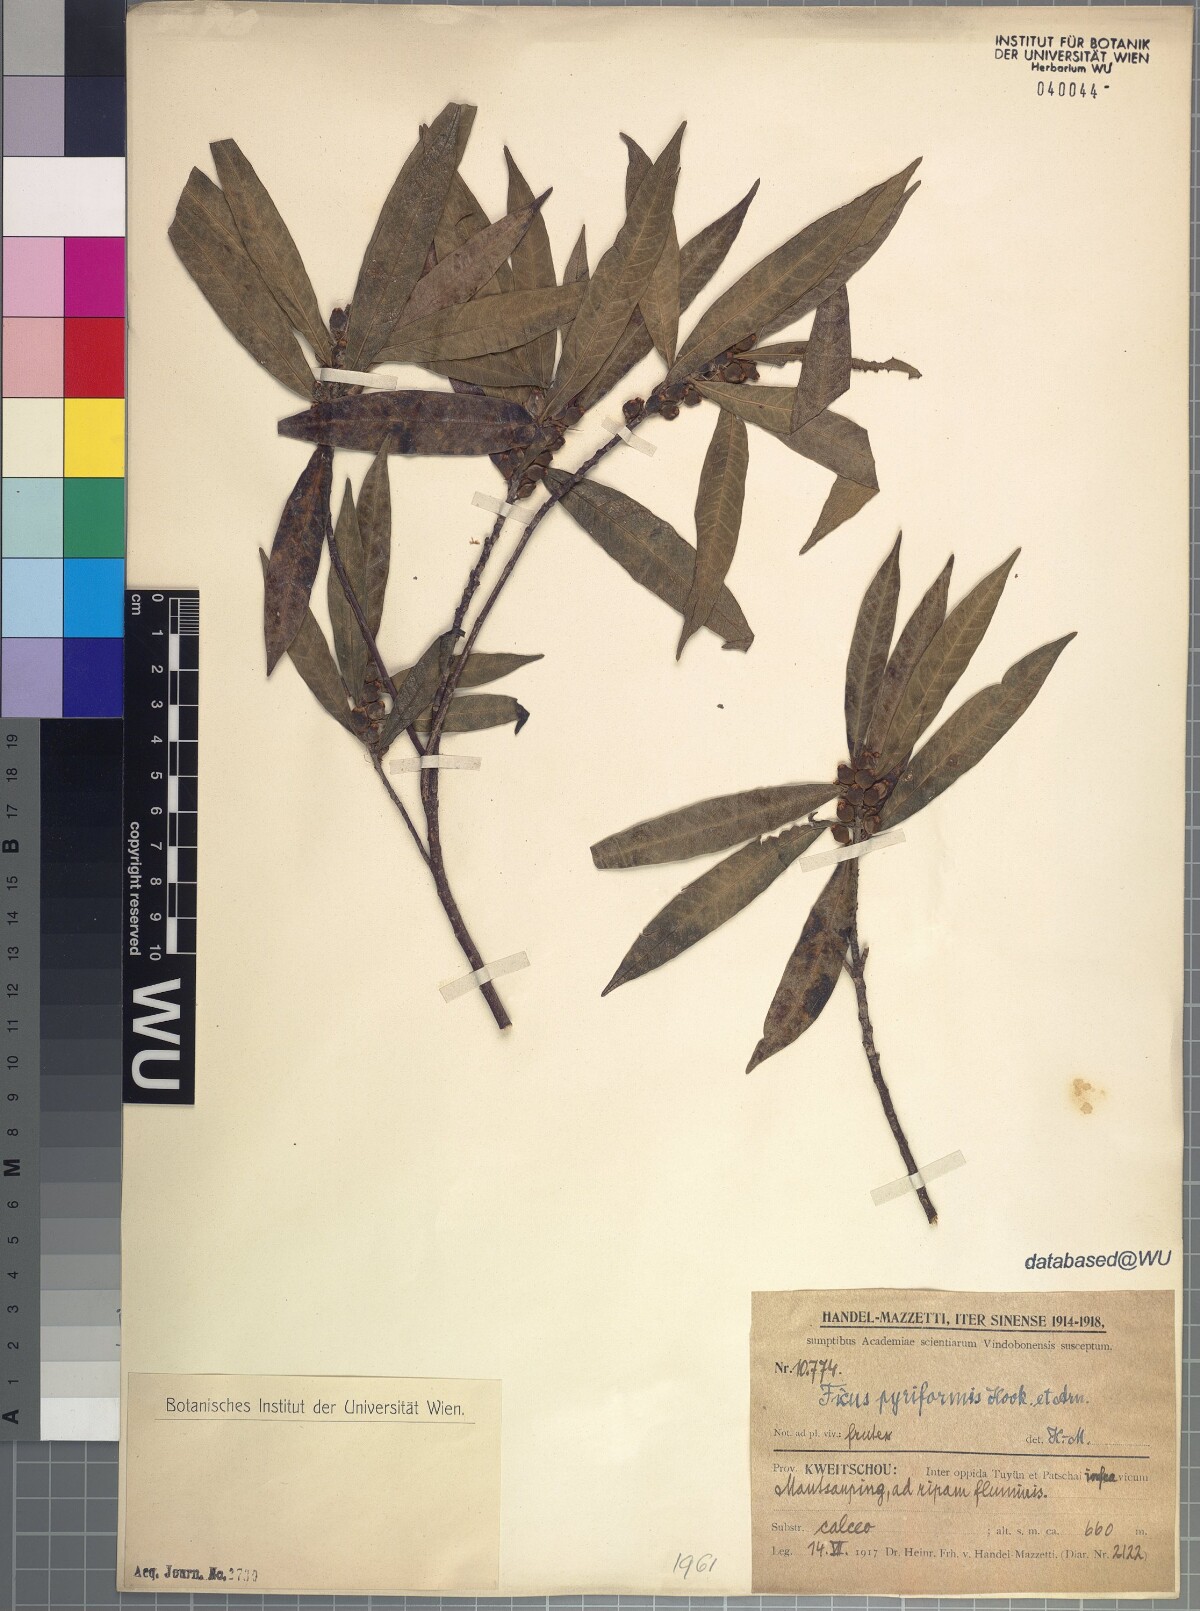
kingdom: Plantae
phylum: Tracheophyta
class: Magnoliopsida
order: Rosales
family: Moraceae
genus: Ficus
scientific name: Ficus pyriformis
